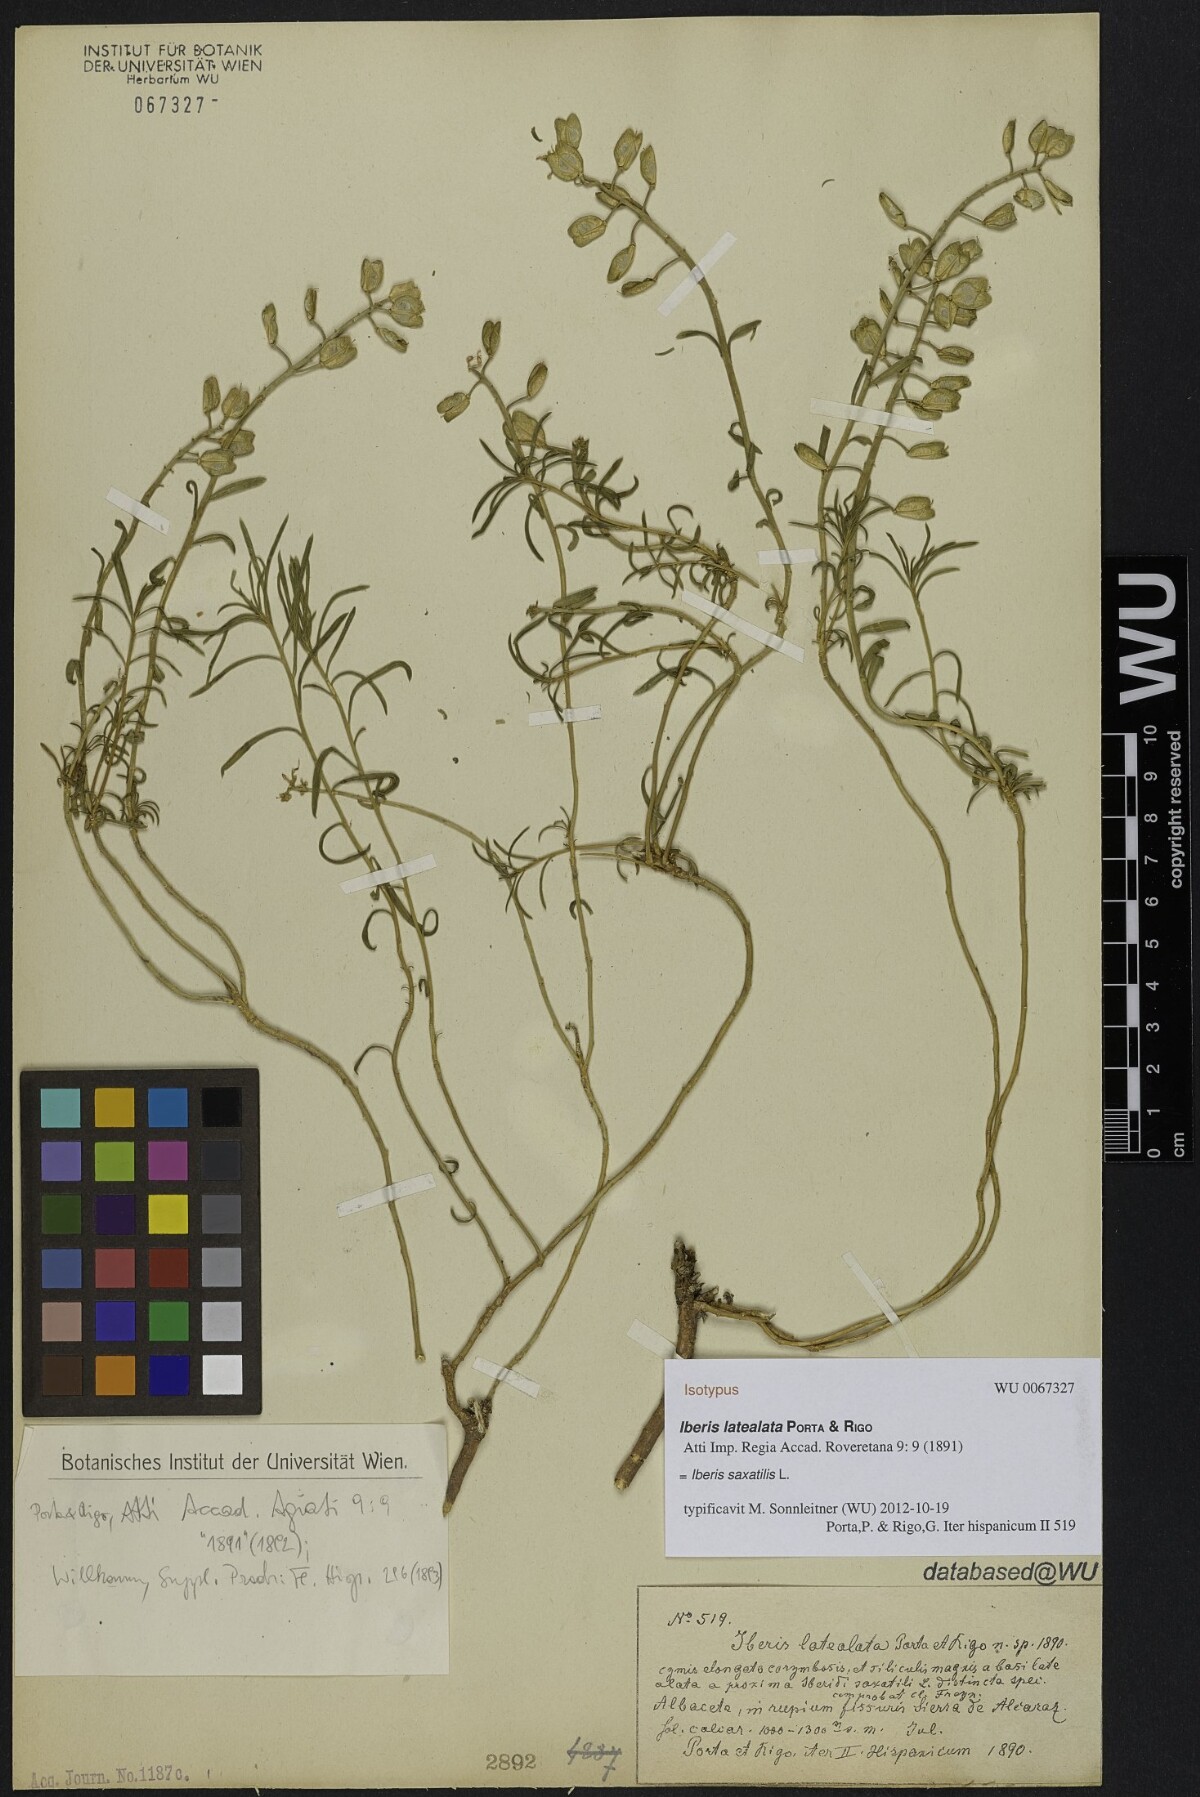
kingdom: Plantae
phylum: Tracheophyta
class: Magnoliopsida
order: Brassicales
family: Brassicaceae
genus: Iberis
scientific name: Iberis saxatilis
